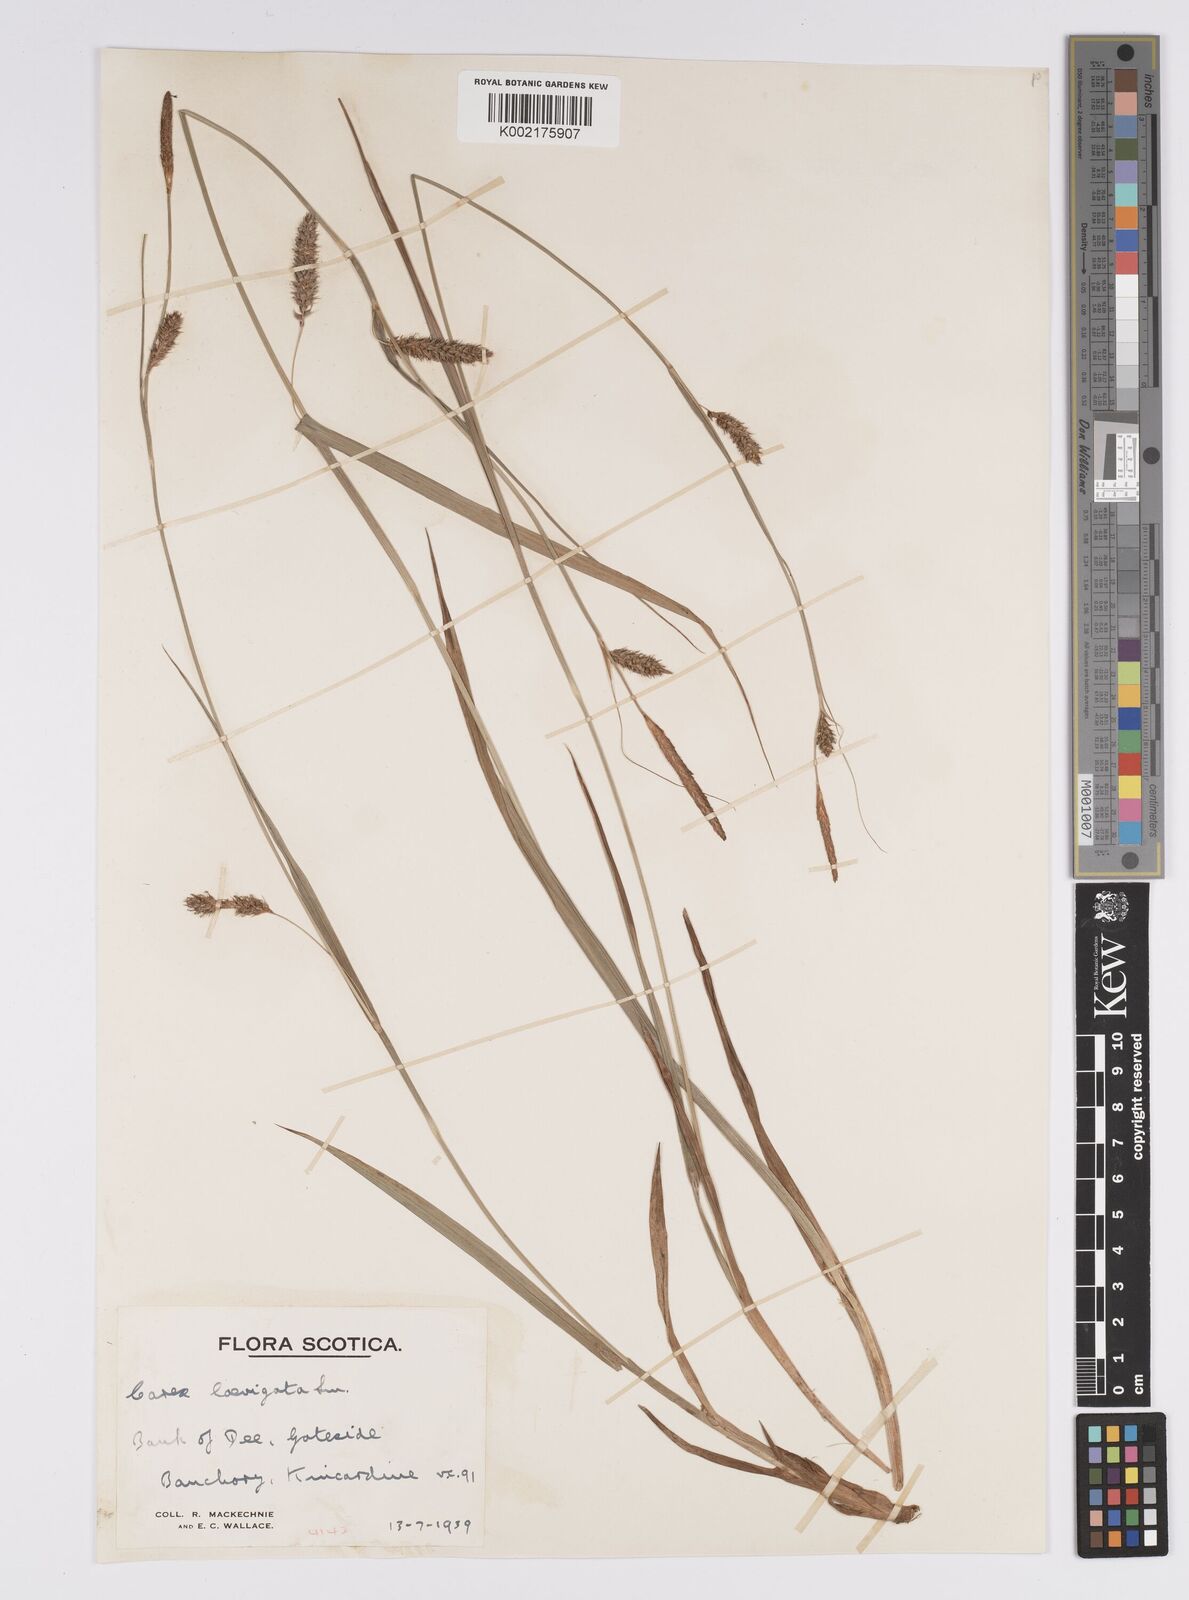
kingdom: Plantae
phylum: Tracheophyta
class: Liliopsida
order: Poales
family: Cyperaceae
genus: Carex
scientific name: Carex laevigata
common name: Smooth-stalked sedge
